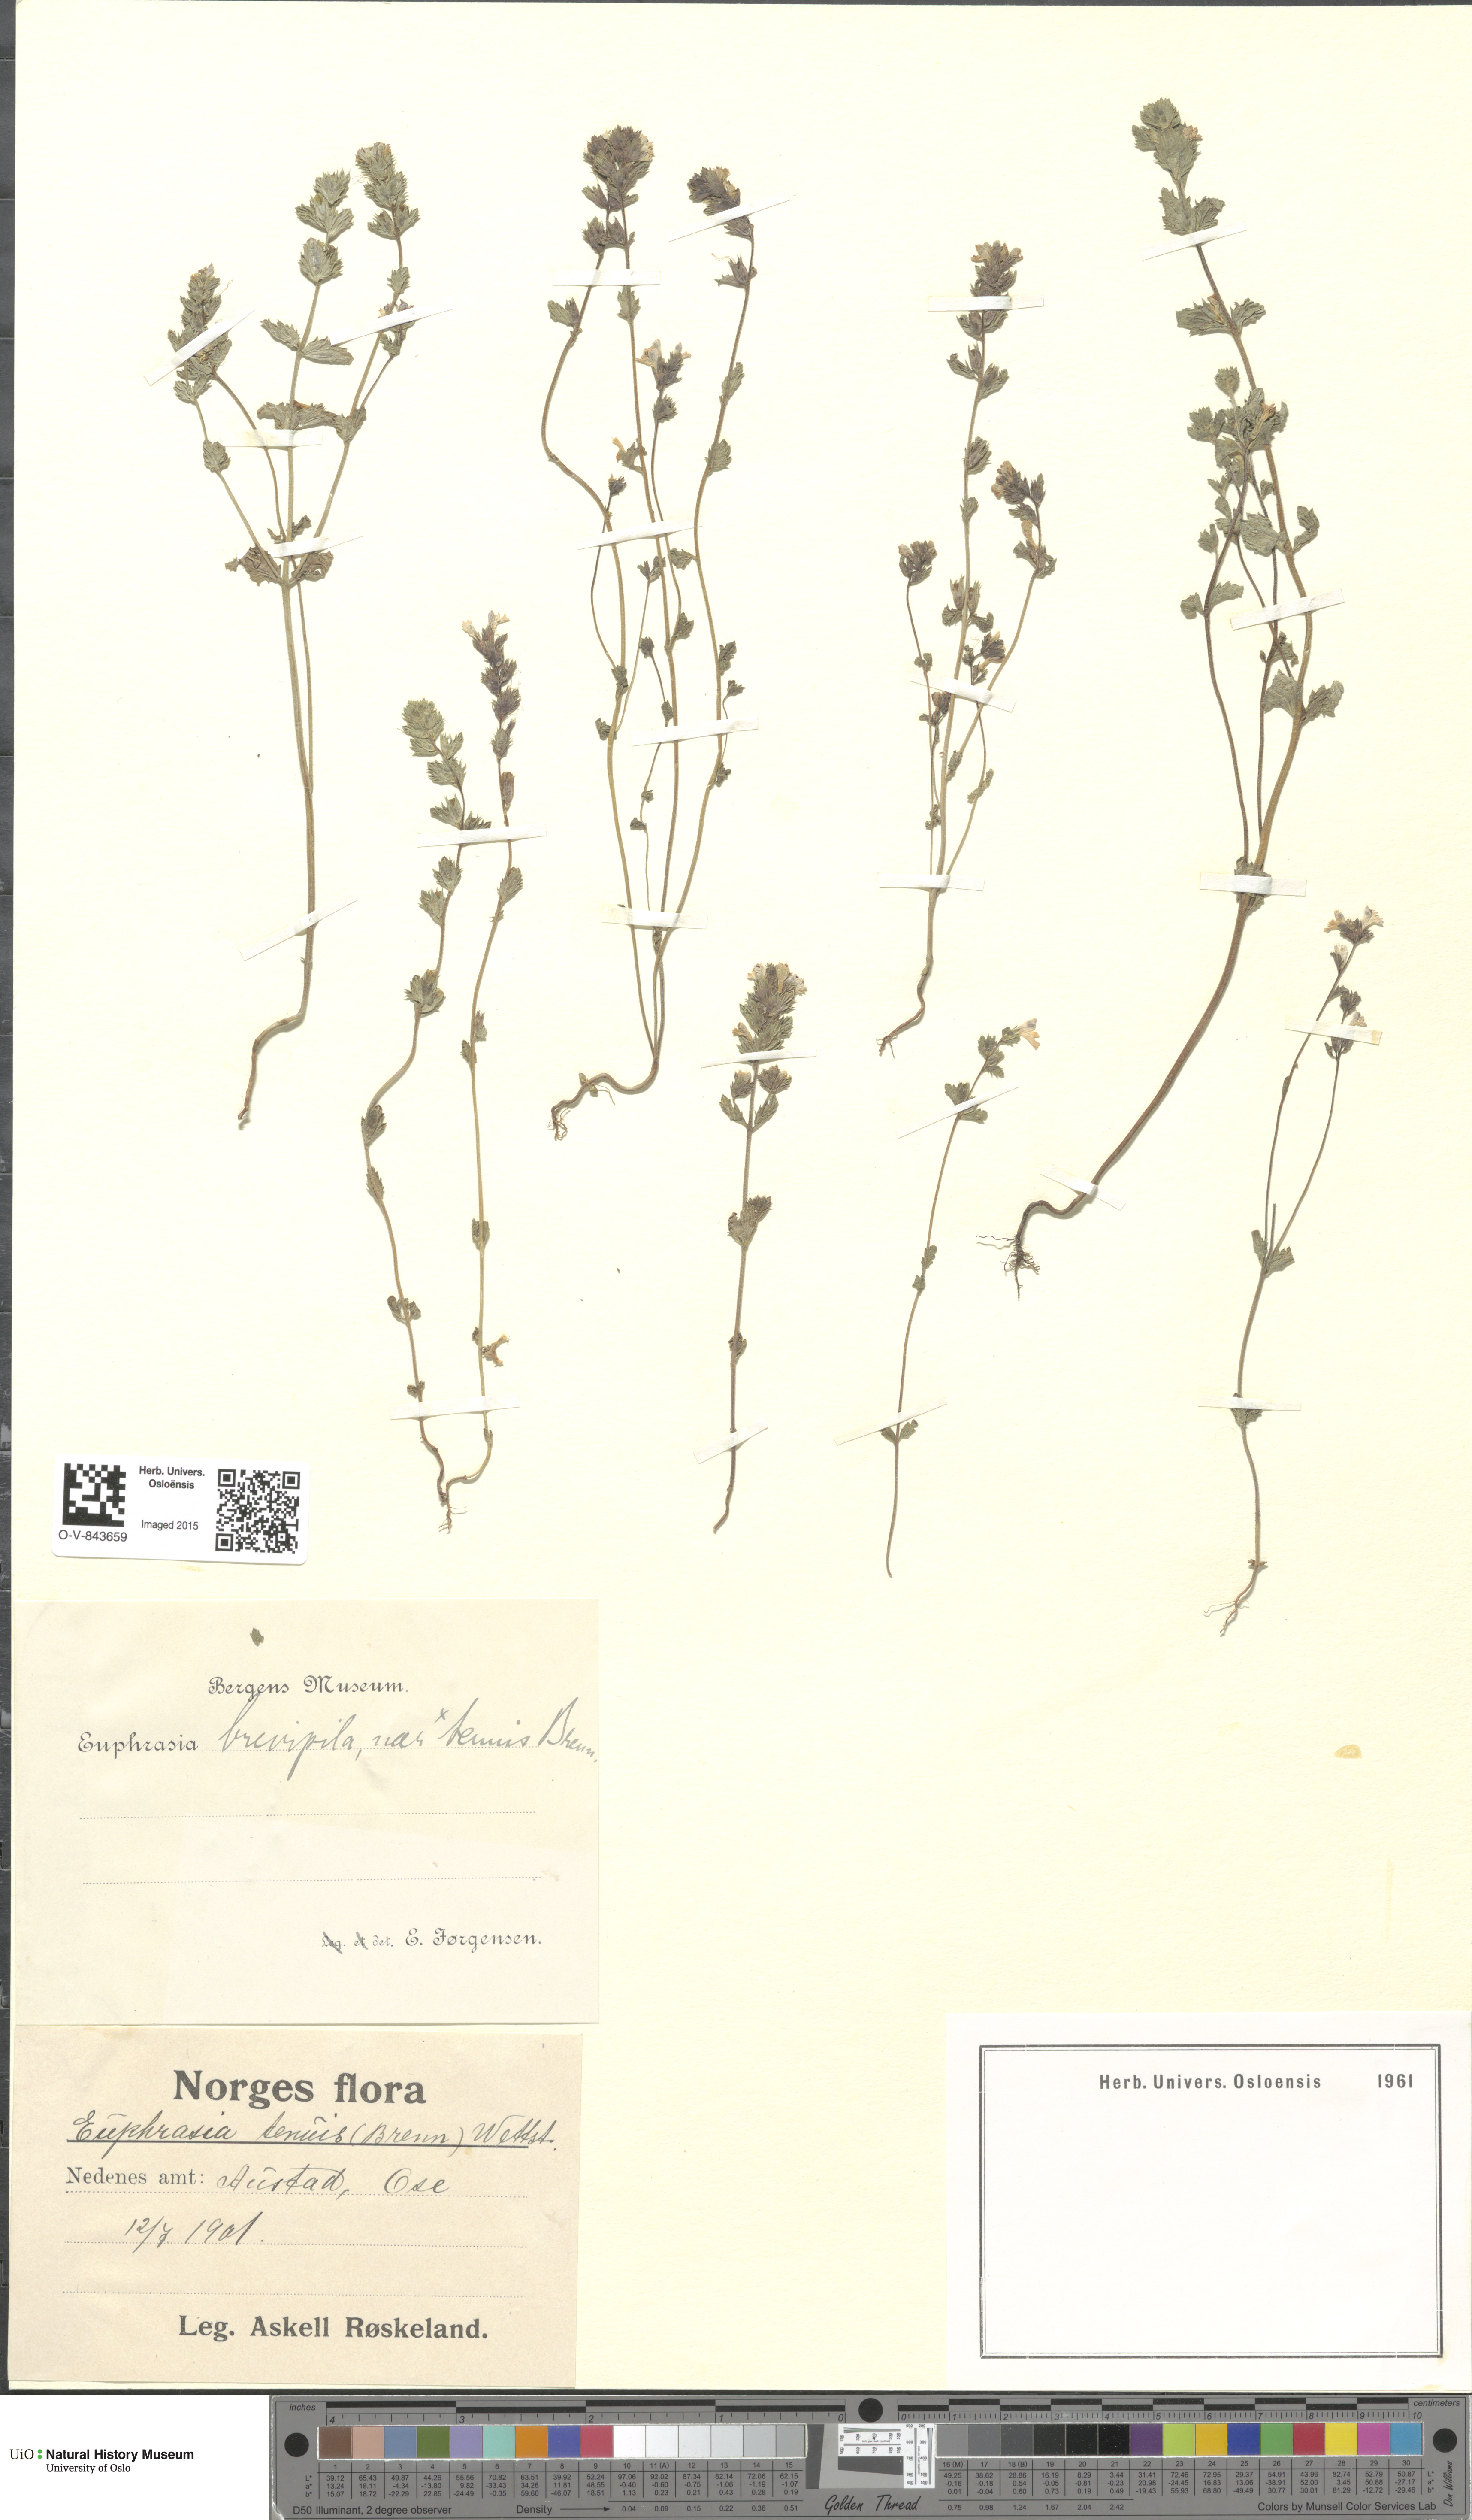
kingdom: Plantae
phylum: Tracheophyta
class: Magnoliopsida
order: Lamiales
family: Orobanchaceae
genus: Euphrasia
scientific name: Euphrasia vernalis
